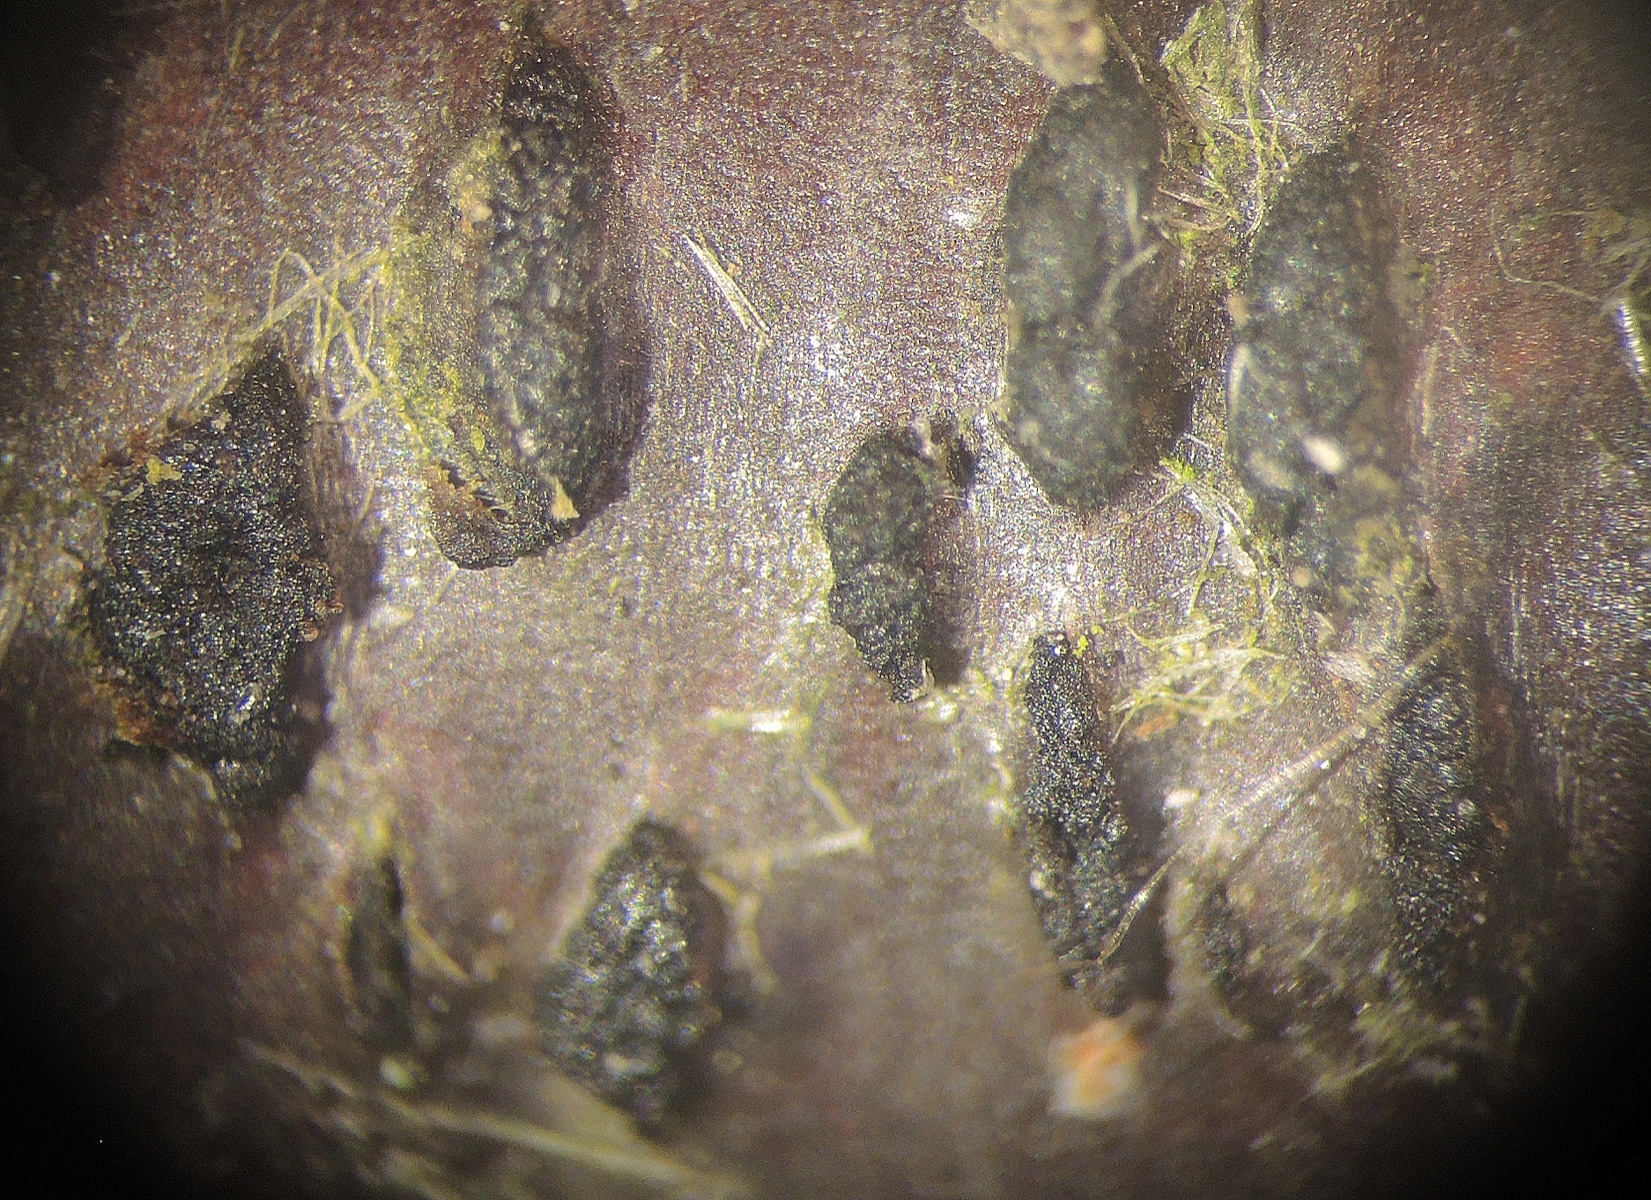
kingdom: Fungi
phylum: Basidiomycota
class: Tremellomycetes
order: Tremellales
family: Tremellaceae
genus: Tremella
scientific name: Tremella exigua
